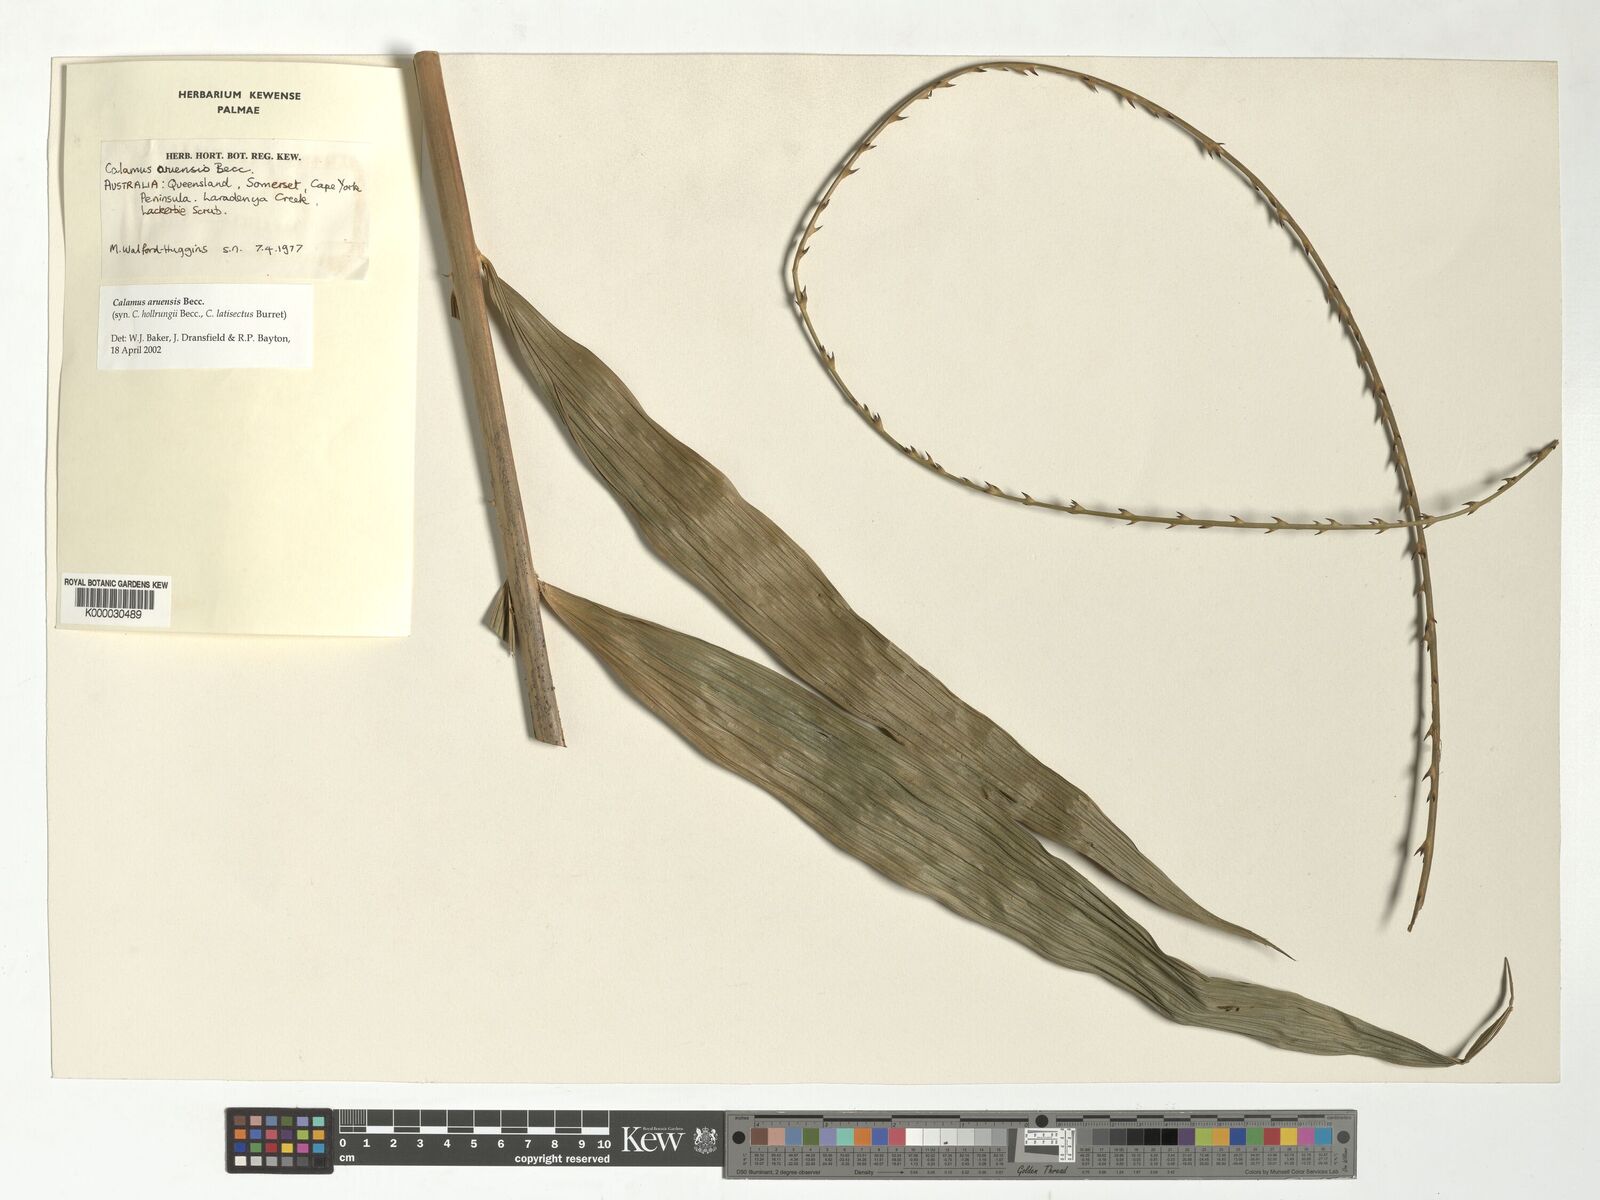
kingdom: Plantae
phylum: Tracheophyta
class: Liliopsida
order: Arecales
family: Arecaceae
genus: Calamus
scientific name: Calamus aruensis
